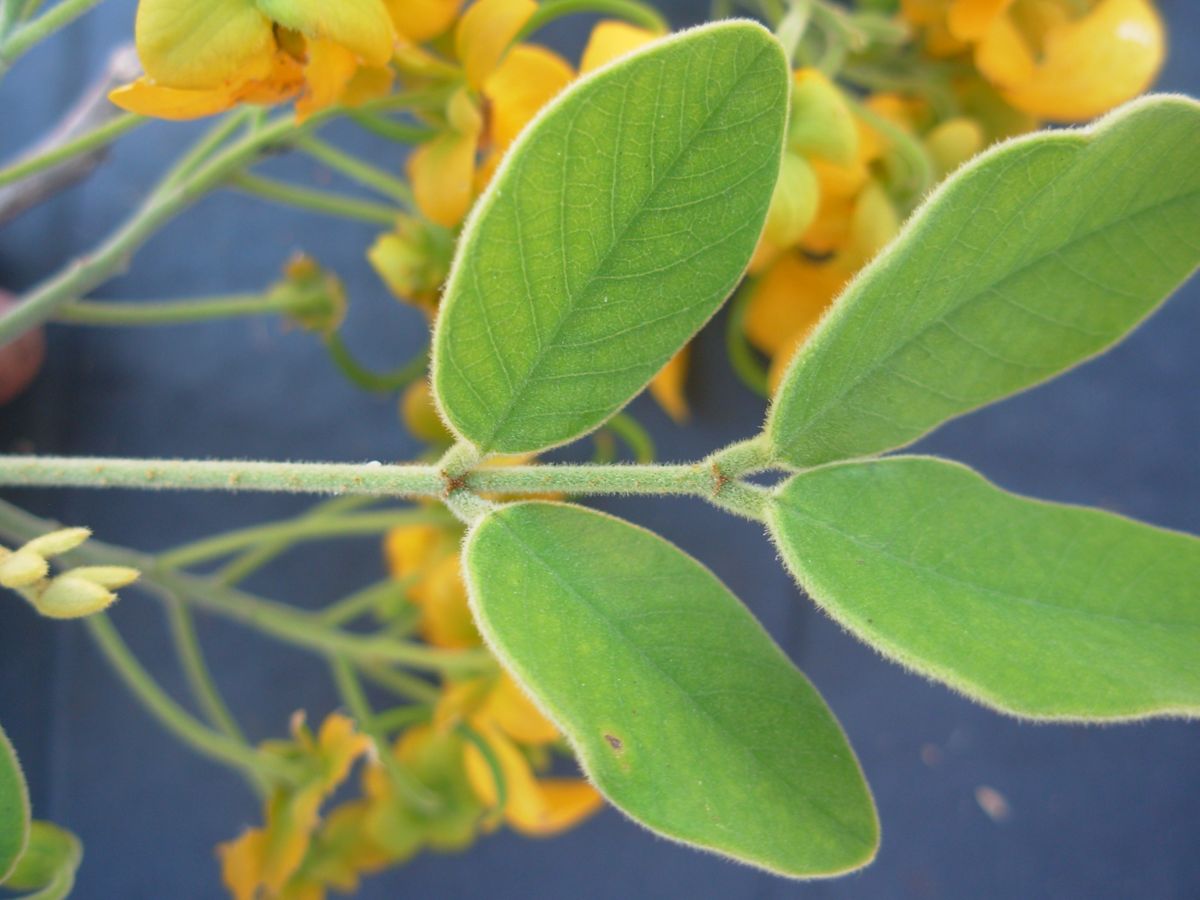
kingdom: Plantae
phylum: Tracheophyta
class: Magnoliopsida
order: Fabales
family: Fabaceae
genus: Senna
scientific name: Senna atomaria
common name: Flor de san jose
